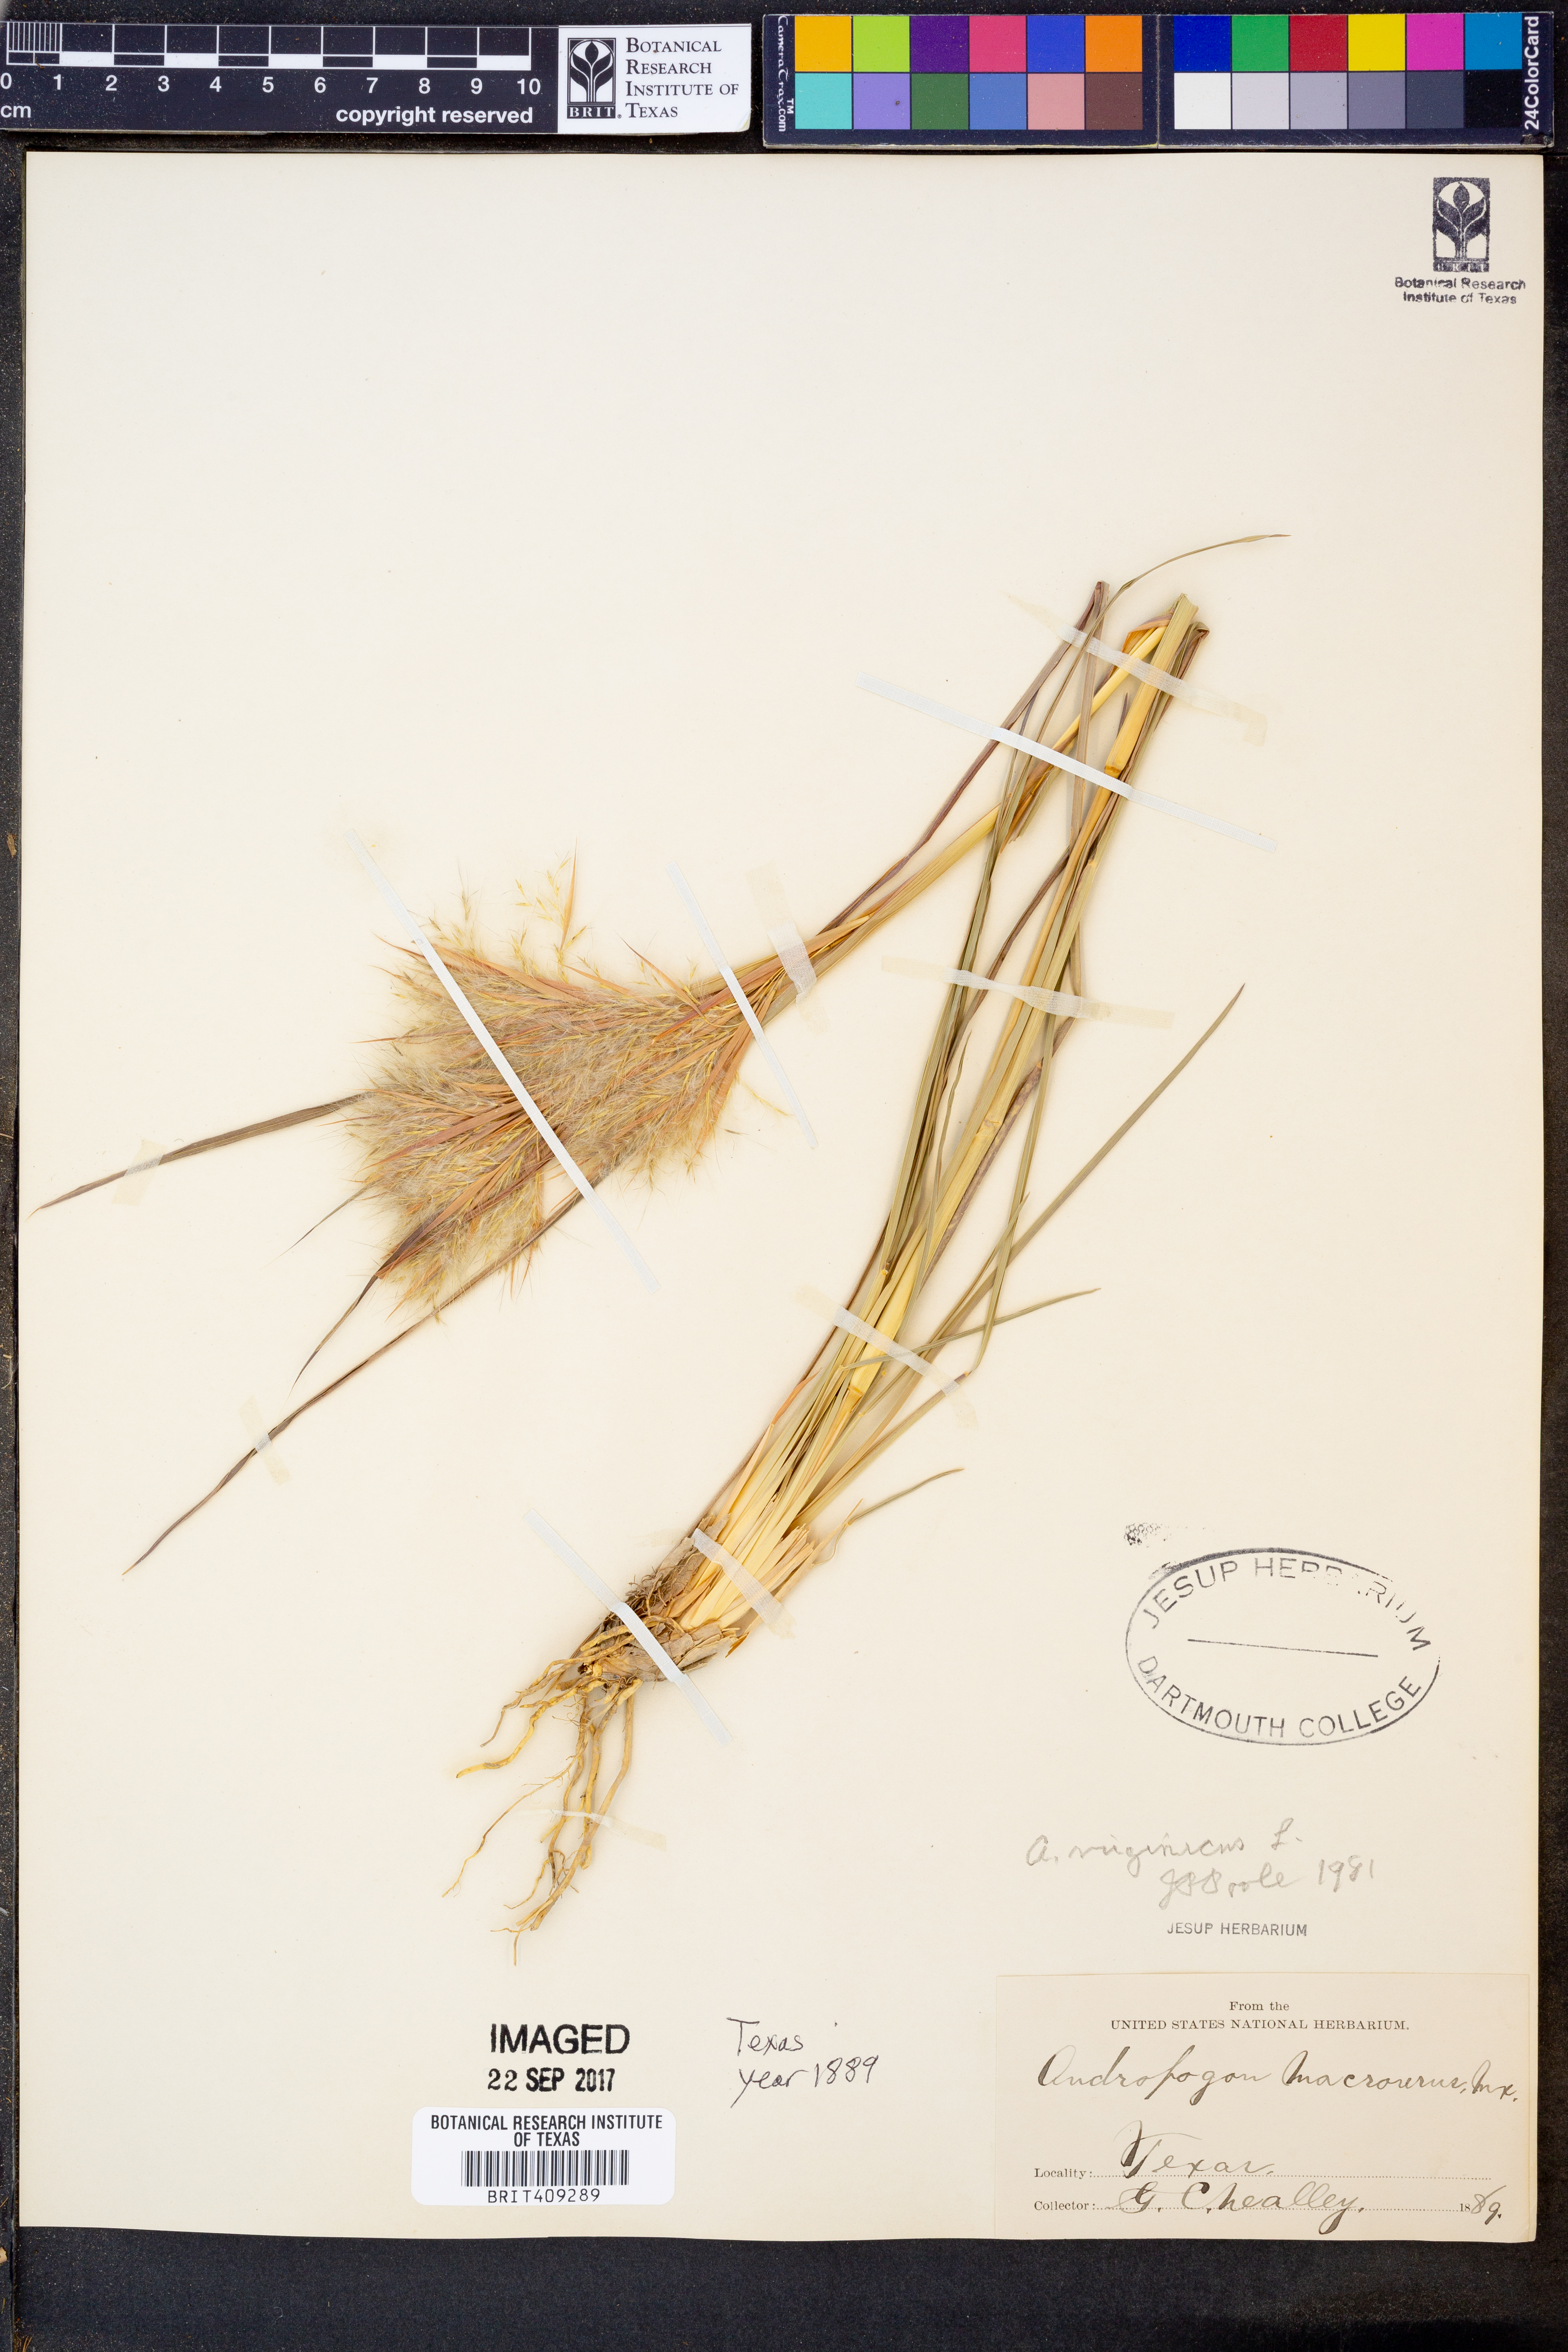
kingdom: Plantae
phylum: Tracheophyta
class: Liliopsida
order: Poales
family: Poaceae
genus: Chrysopogon
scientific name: Chrysopogon nigritanus
